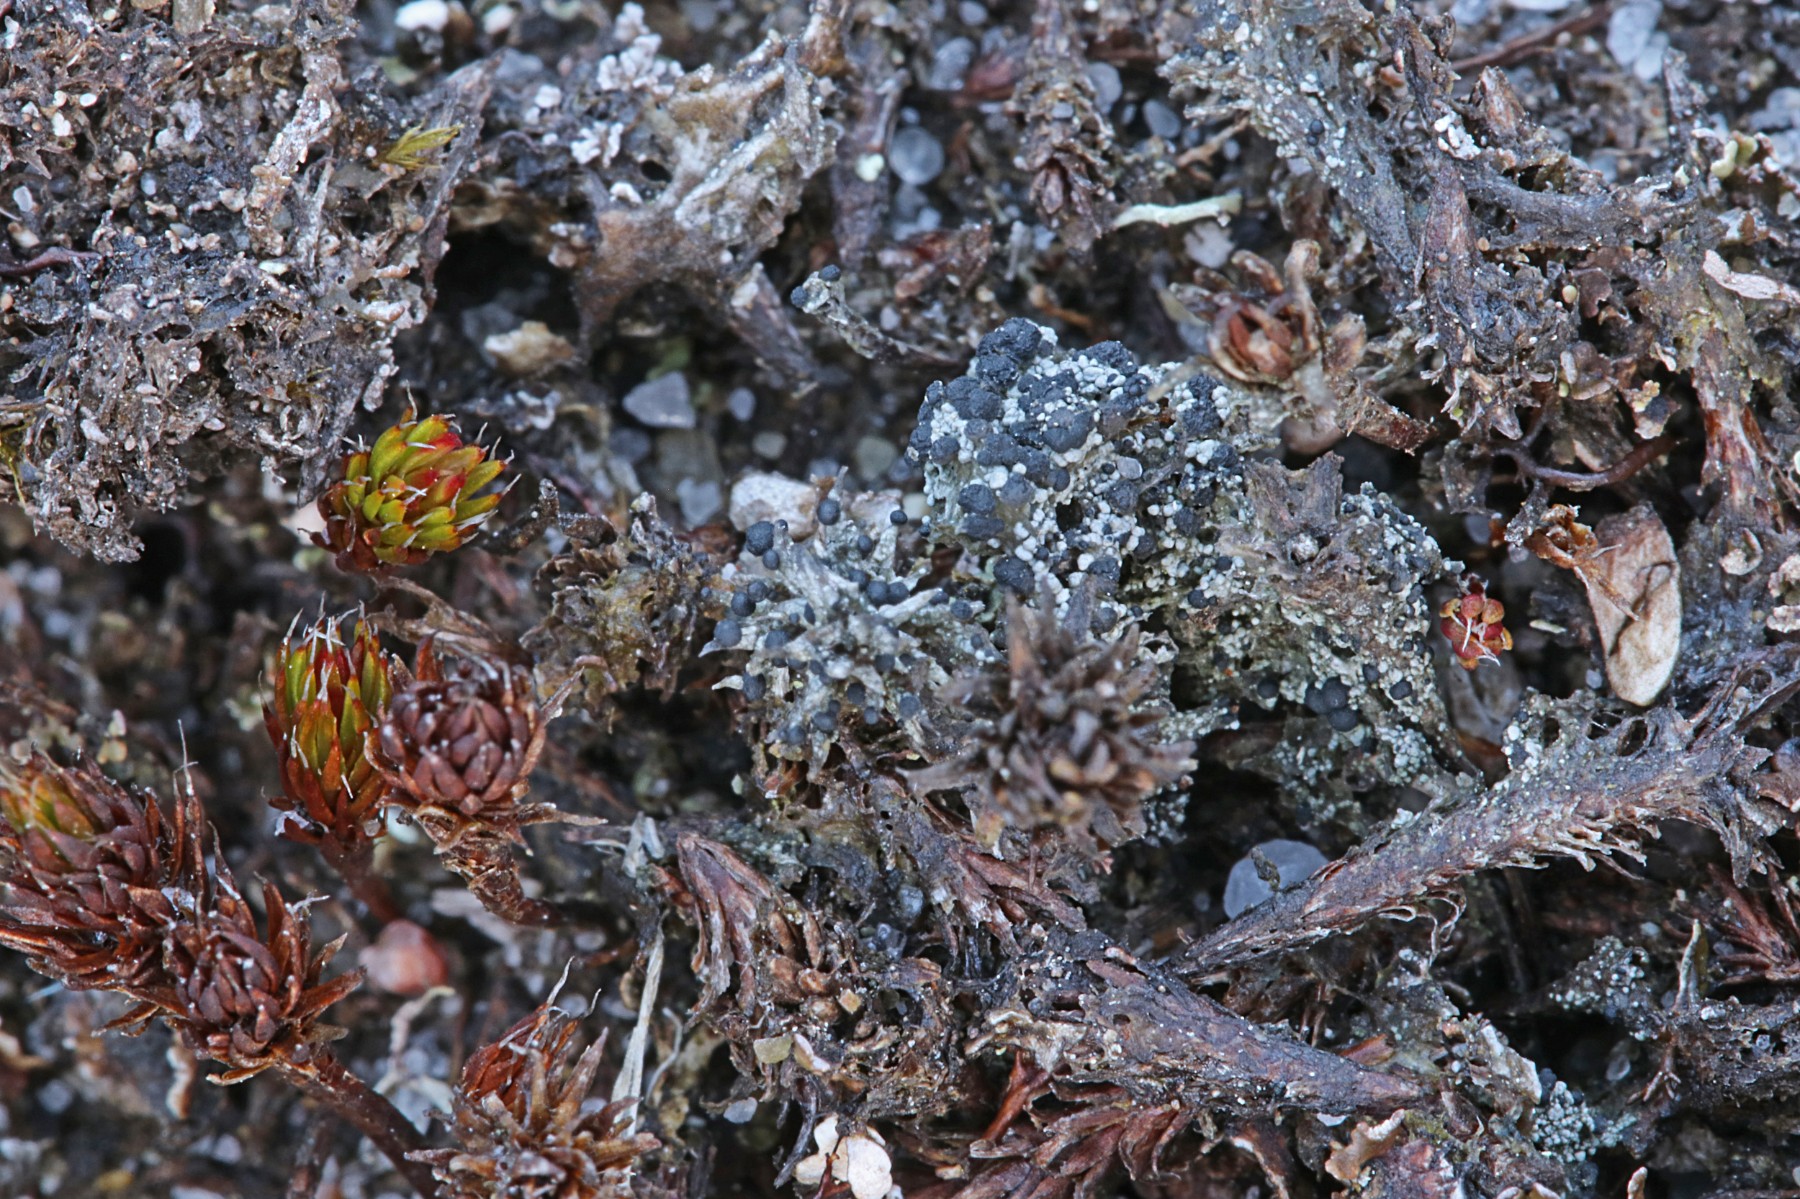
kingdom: Fungi
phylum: Ascomycota
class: Lecanoromycetes
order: Lecanorales
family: Byssolomataceae
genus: Micarea
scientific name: Micarea lignaria
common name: tørve-knaplav
